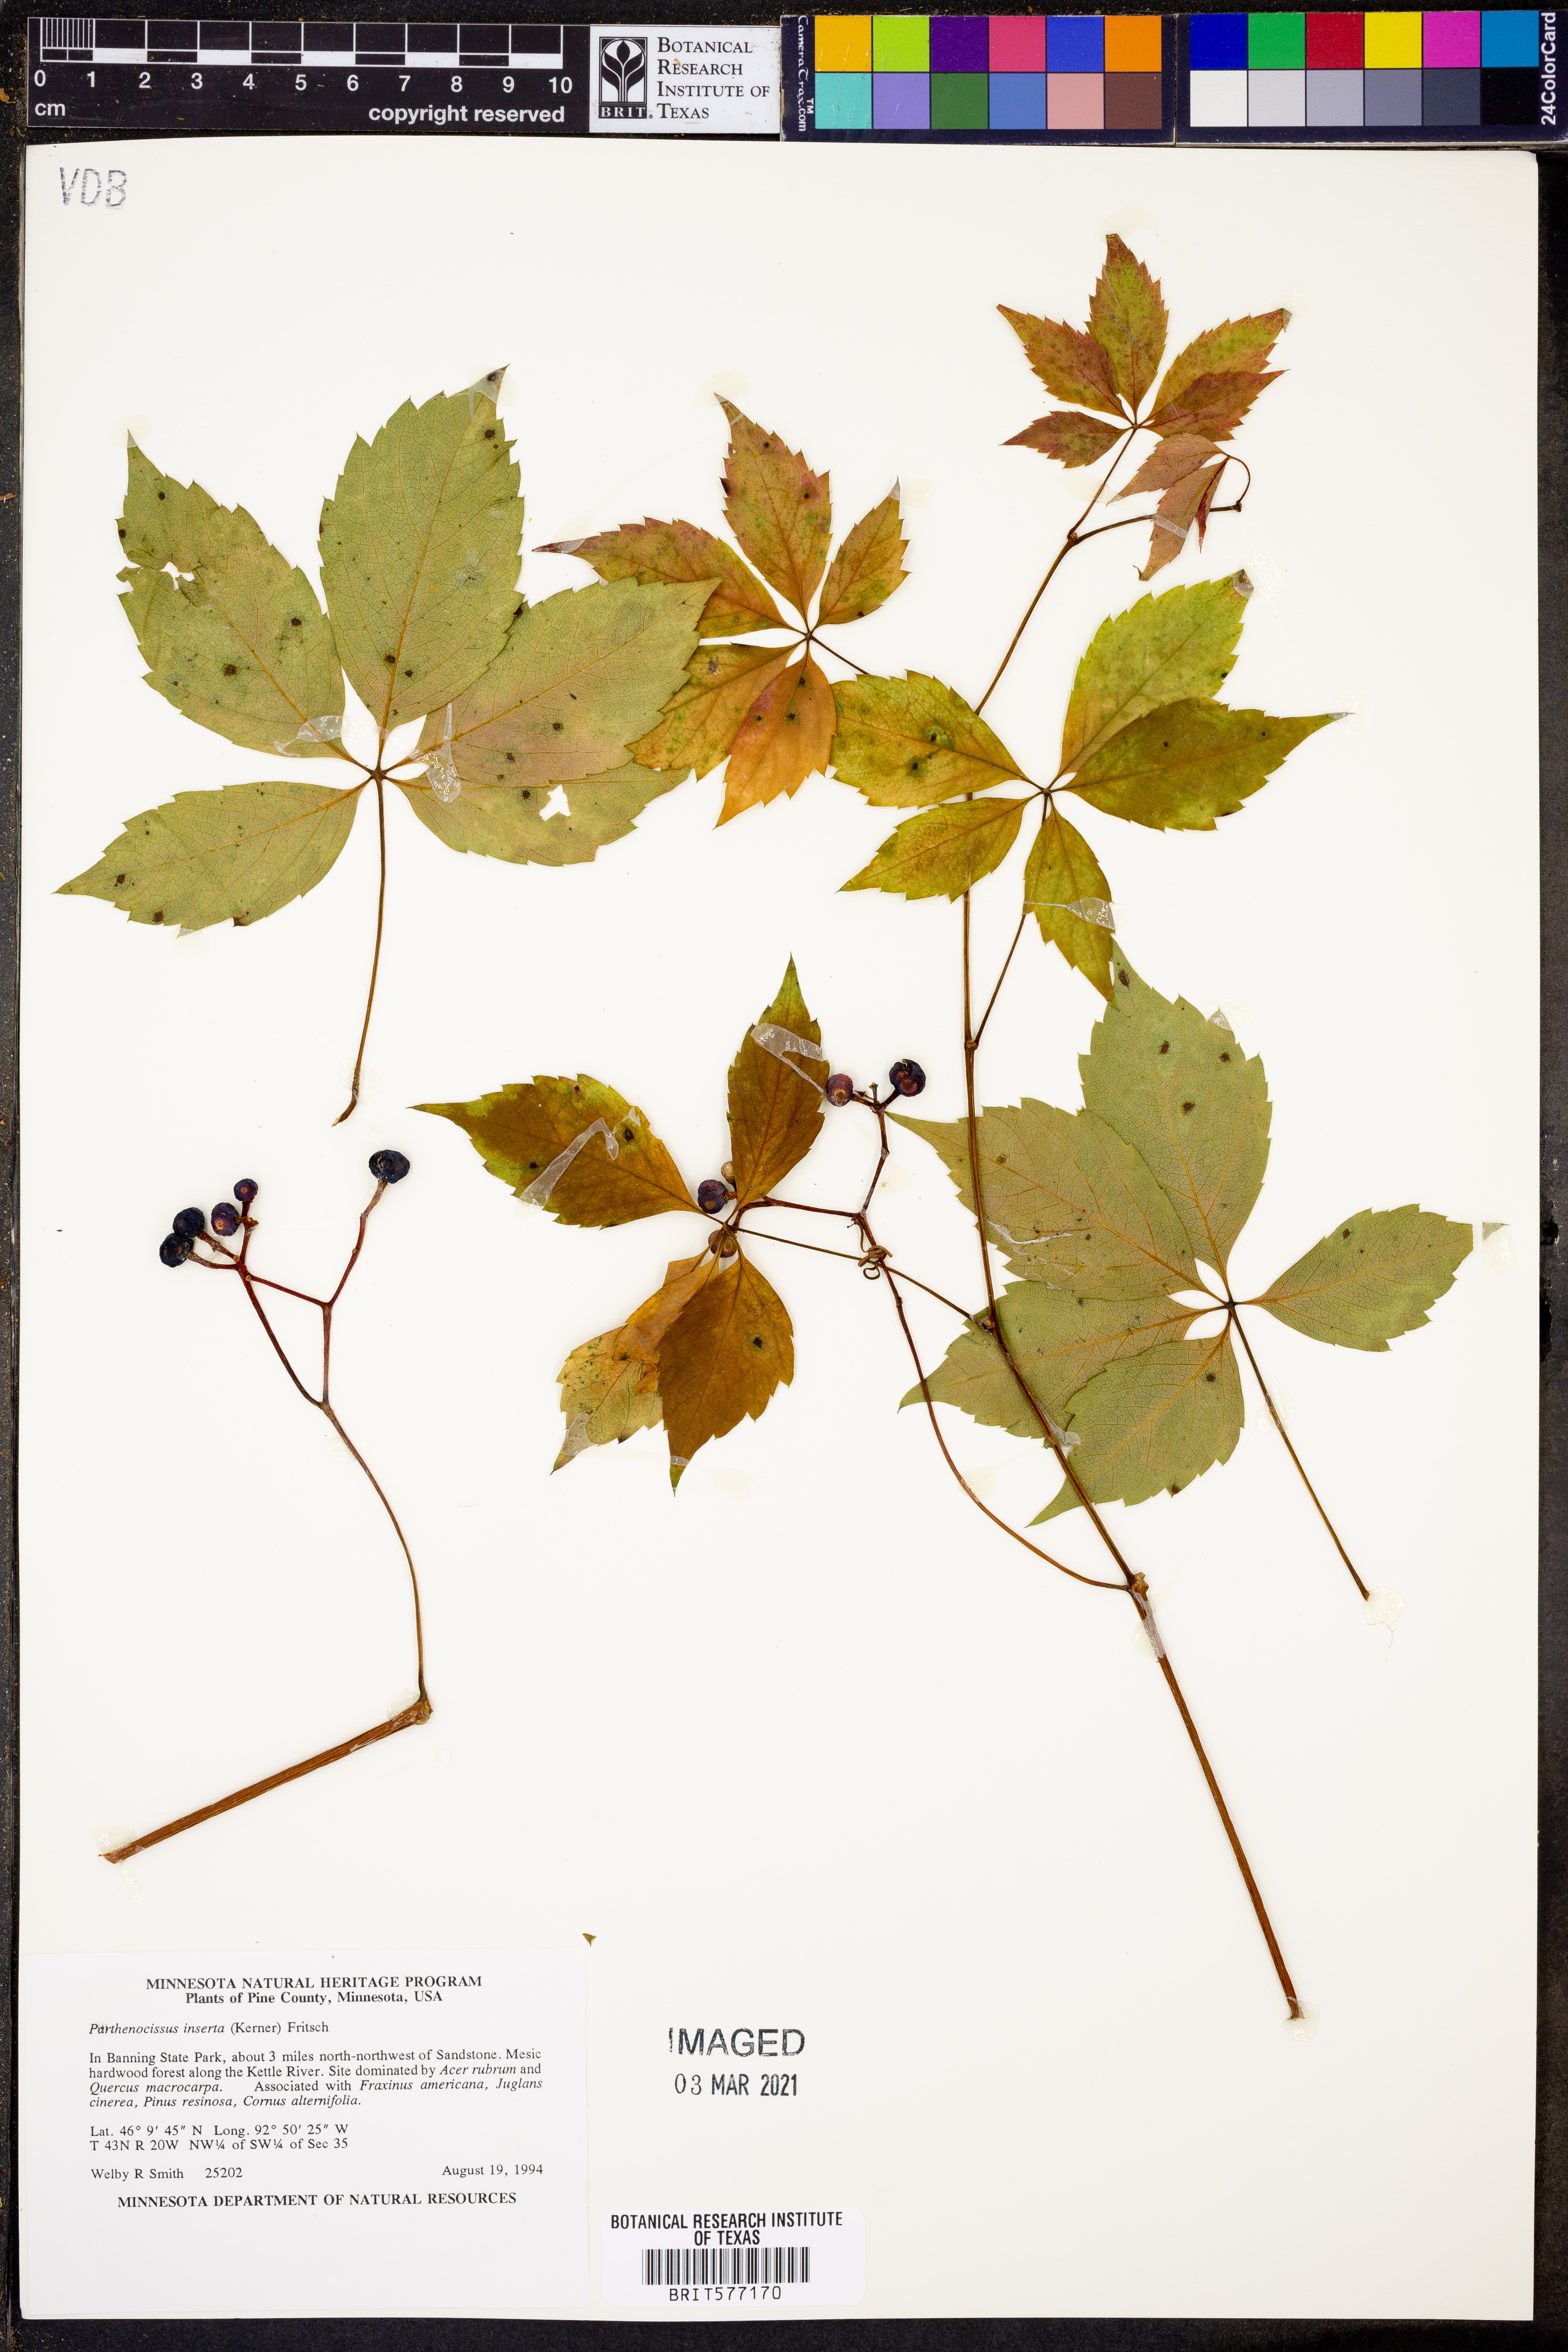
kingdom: Plantae
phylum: Tracheophyta
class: Magnoliopsida
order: Vitales
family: Vitaceae
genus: Parthenocissus
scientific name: Parthenocissus inserta
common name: False virginia-creeper
